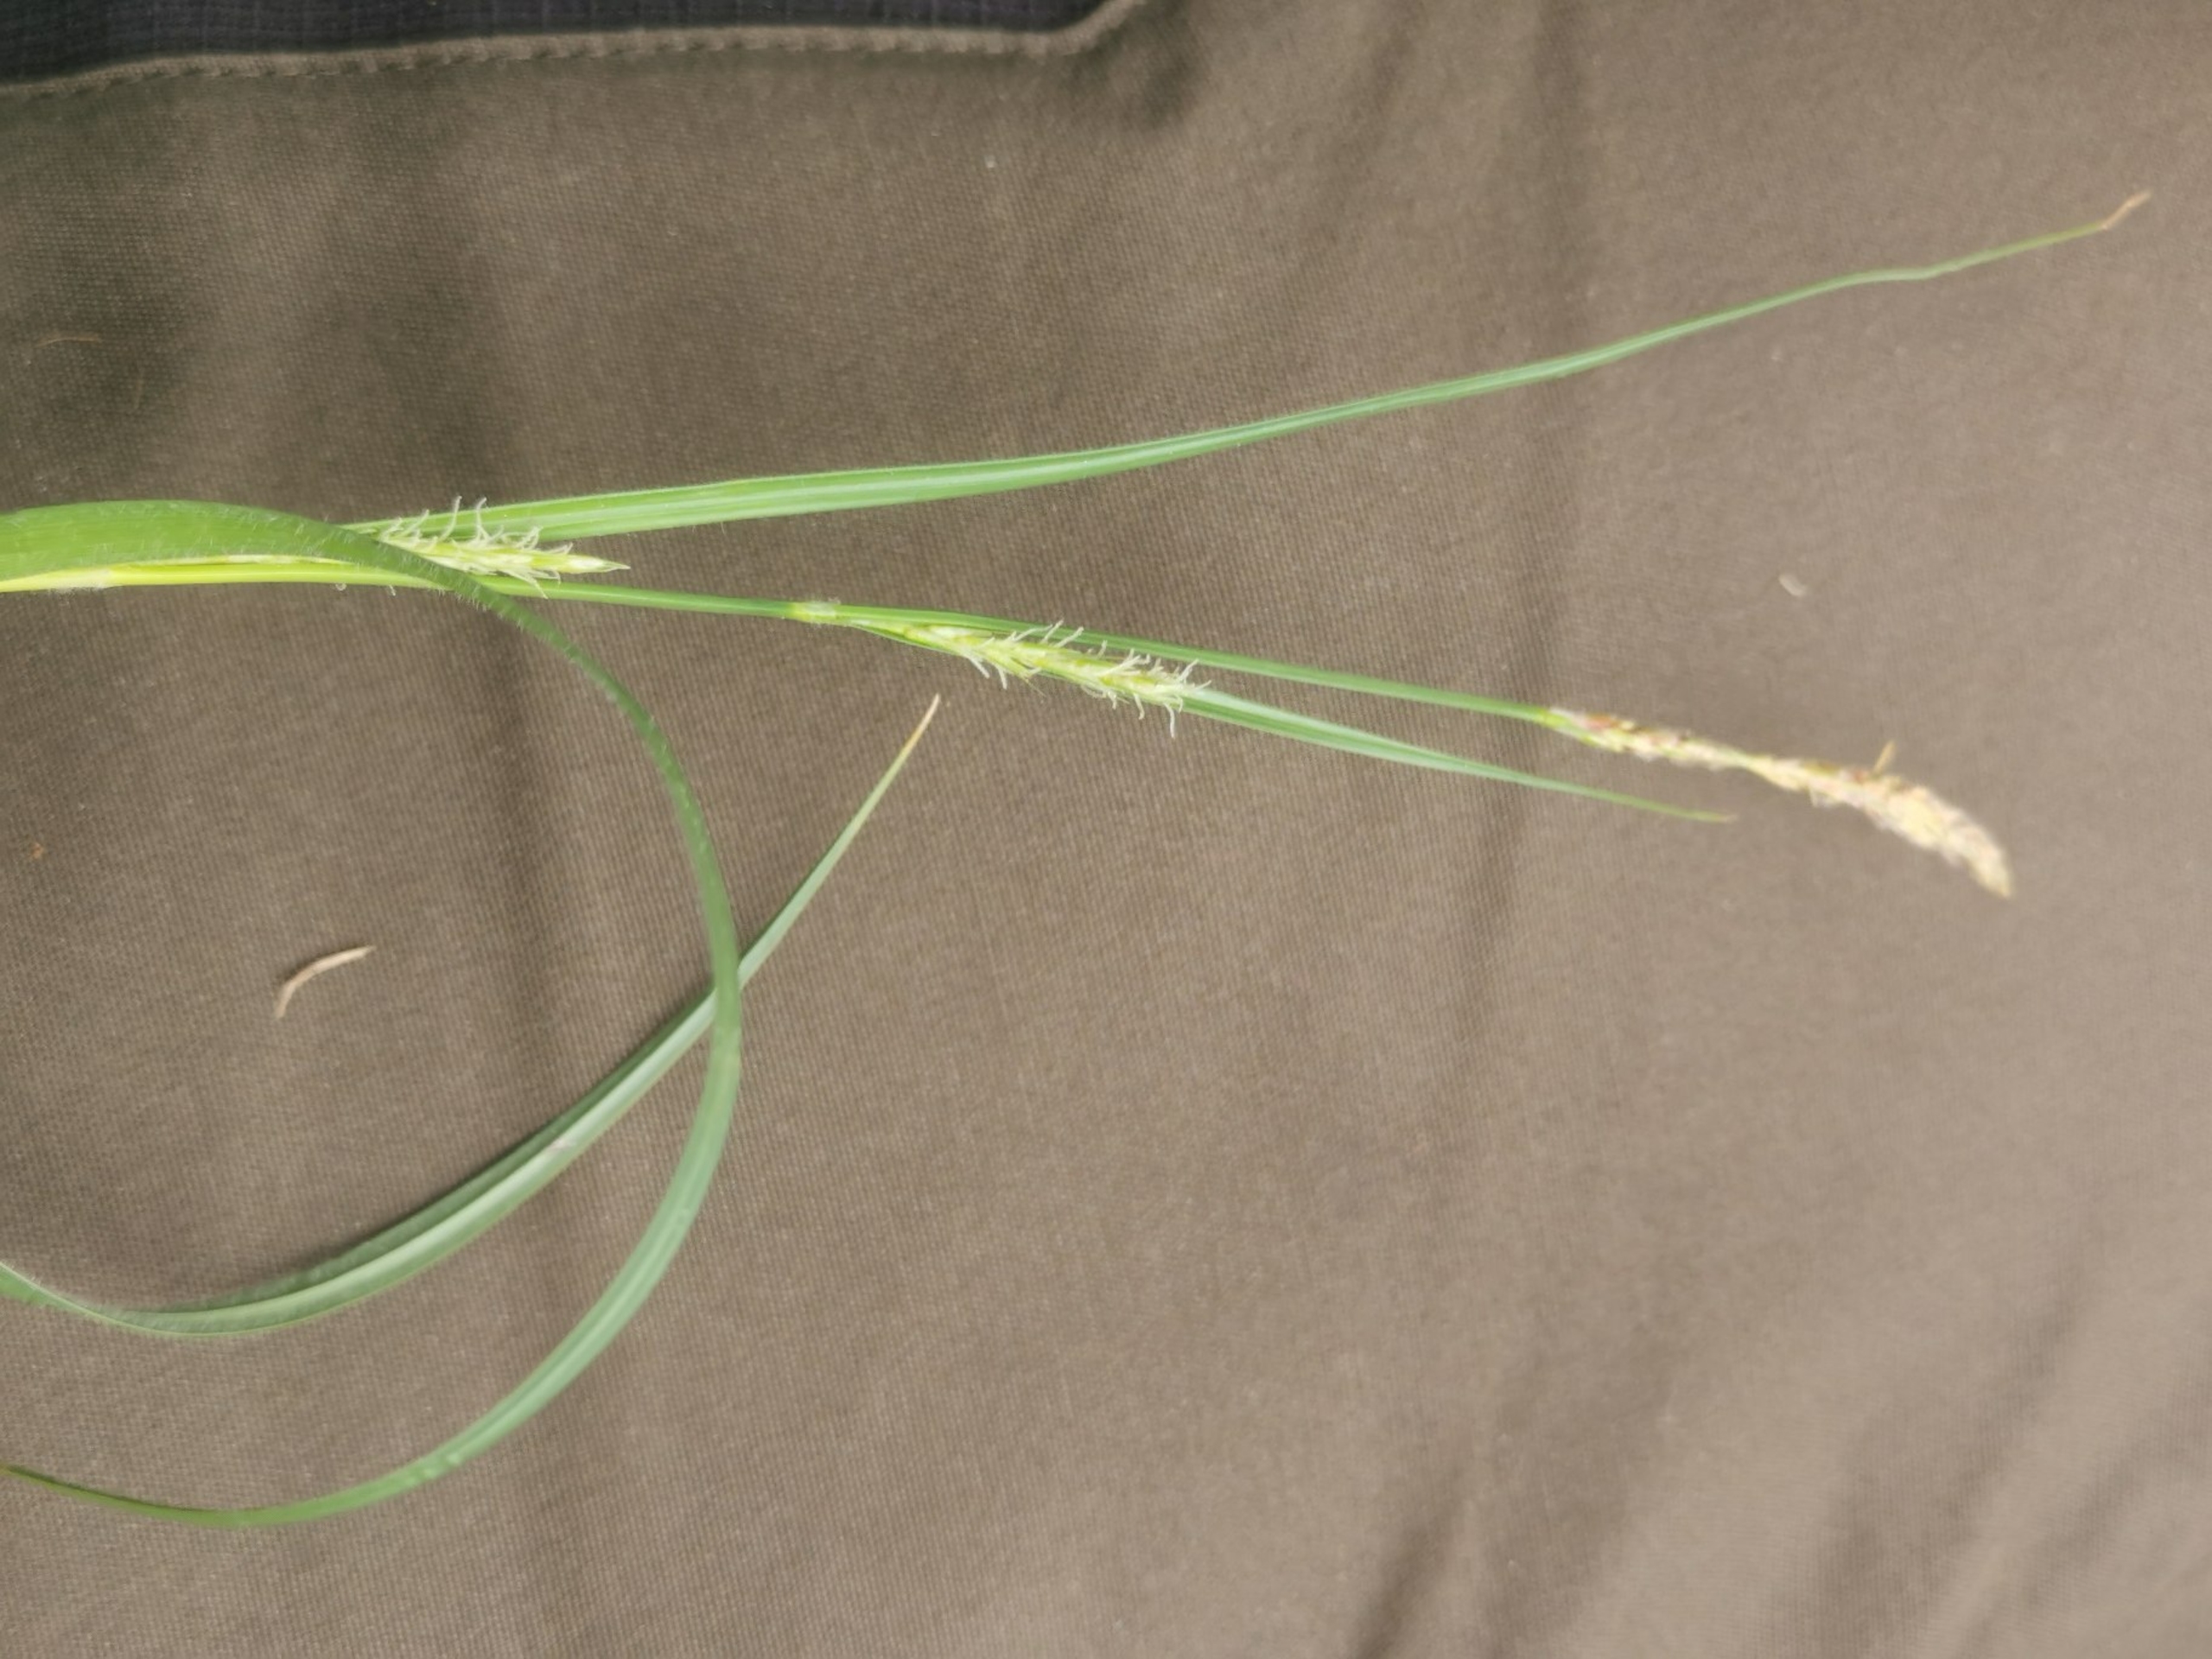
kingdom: Plantae
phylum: Tracheophyta
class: Liliopsida
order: Poales
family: Cyperaceae
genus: Carex
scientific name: Carex hirta
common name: Håret star
